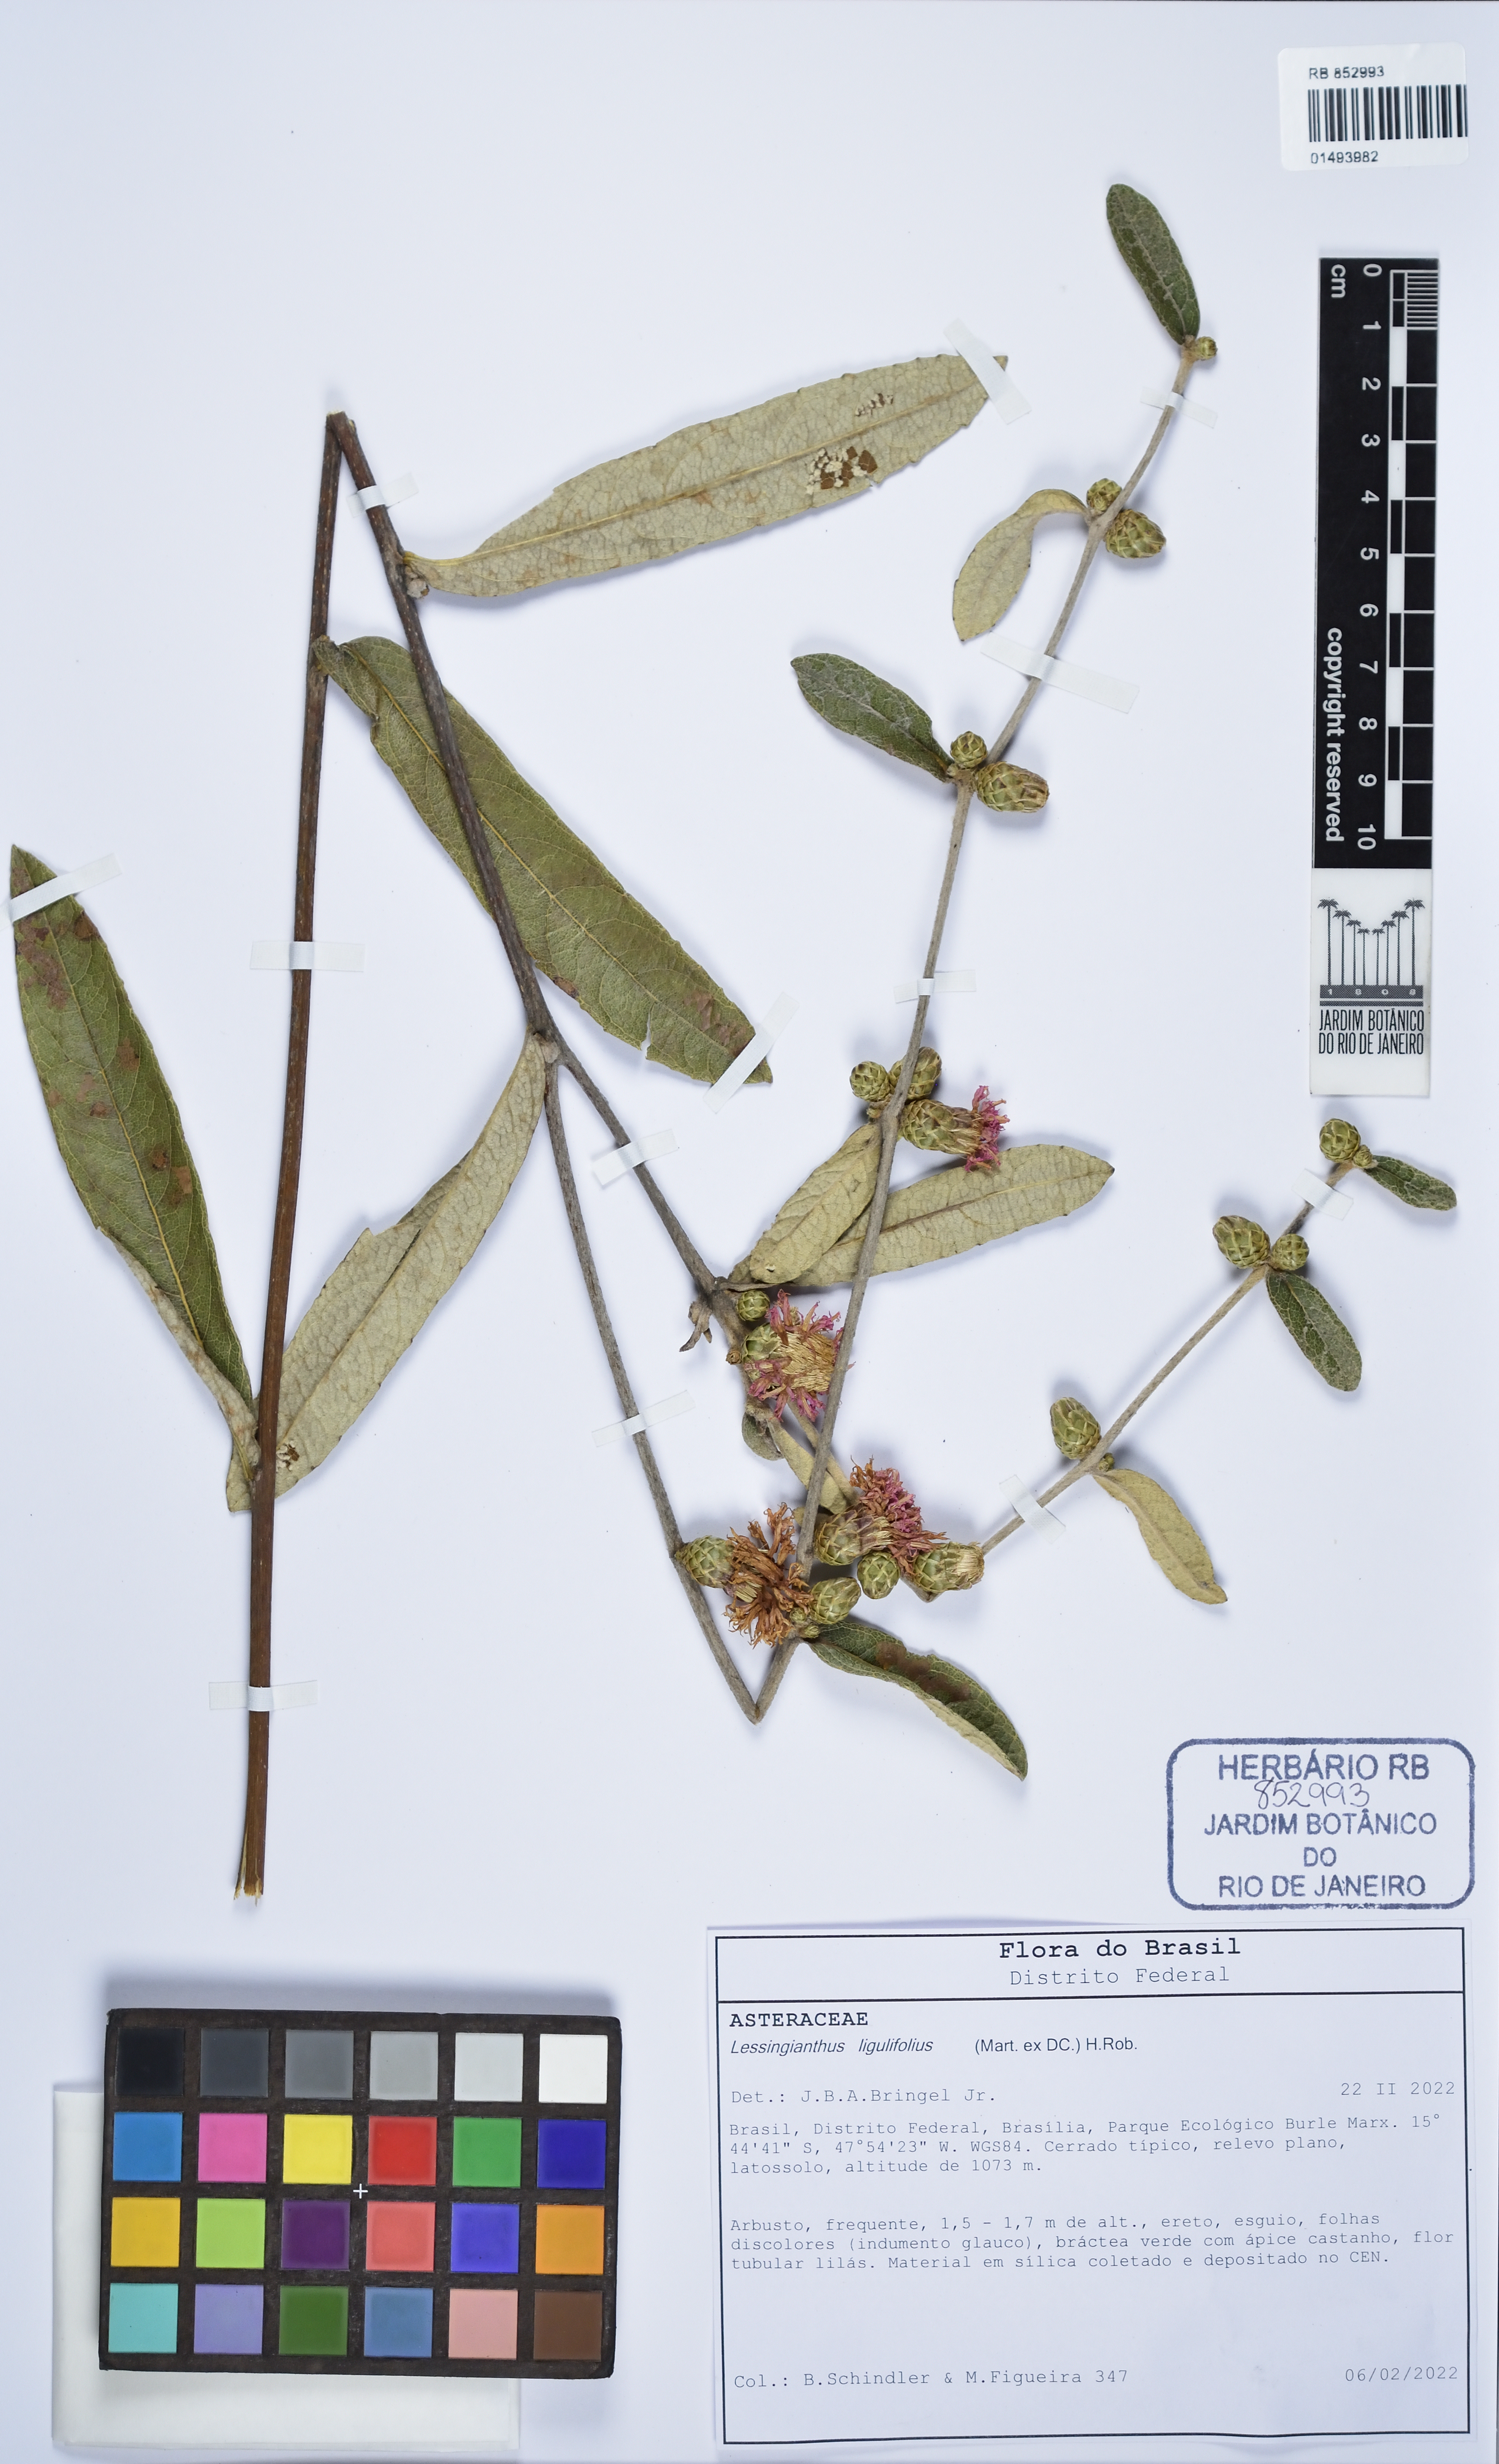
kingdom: Plantae
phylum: Tracheophyta
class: Magnoliopsida
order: Asterales
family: Asteraceae
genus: Lessingianthus
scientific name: Lessingianthus ligulifolius
